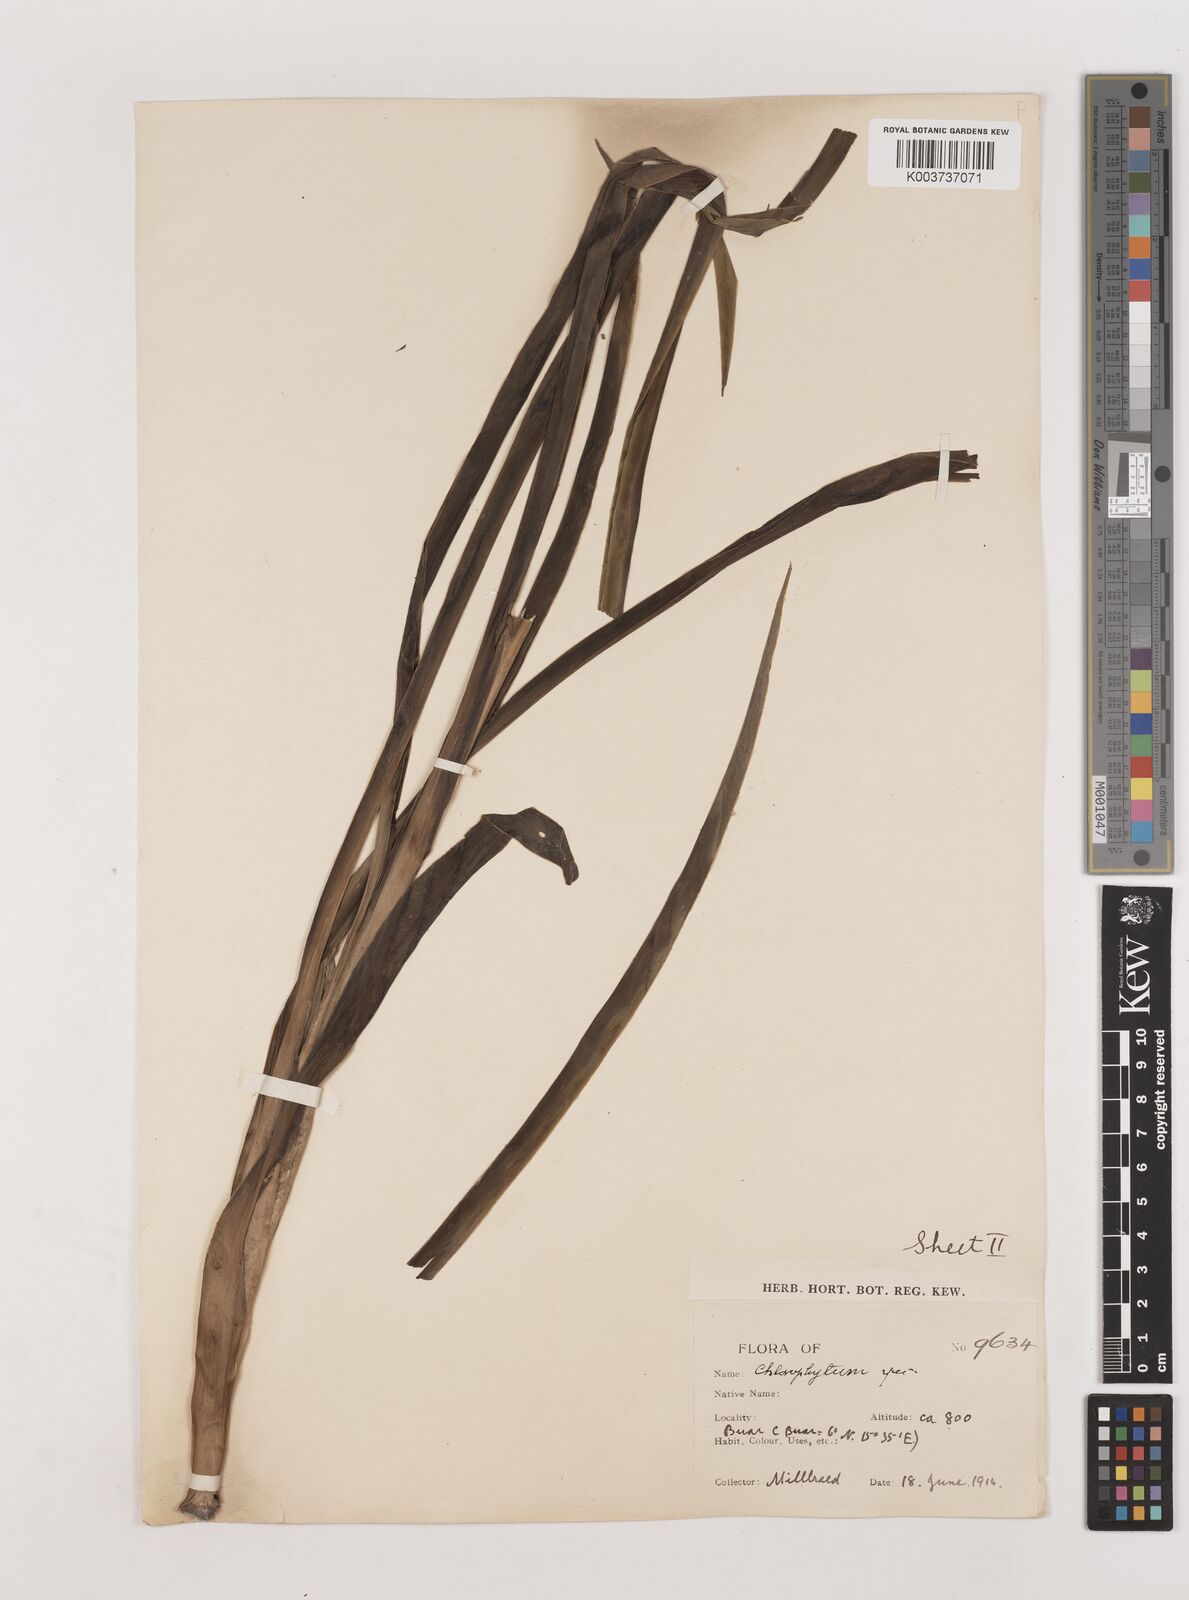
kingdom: Plantae
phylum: Tracheophyta
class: Liliopsida
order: Asparagales
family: Asparagaceae
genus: Chlorophytum
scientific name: Chlorophytum longifolium
